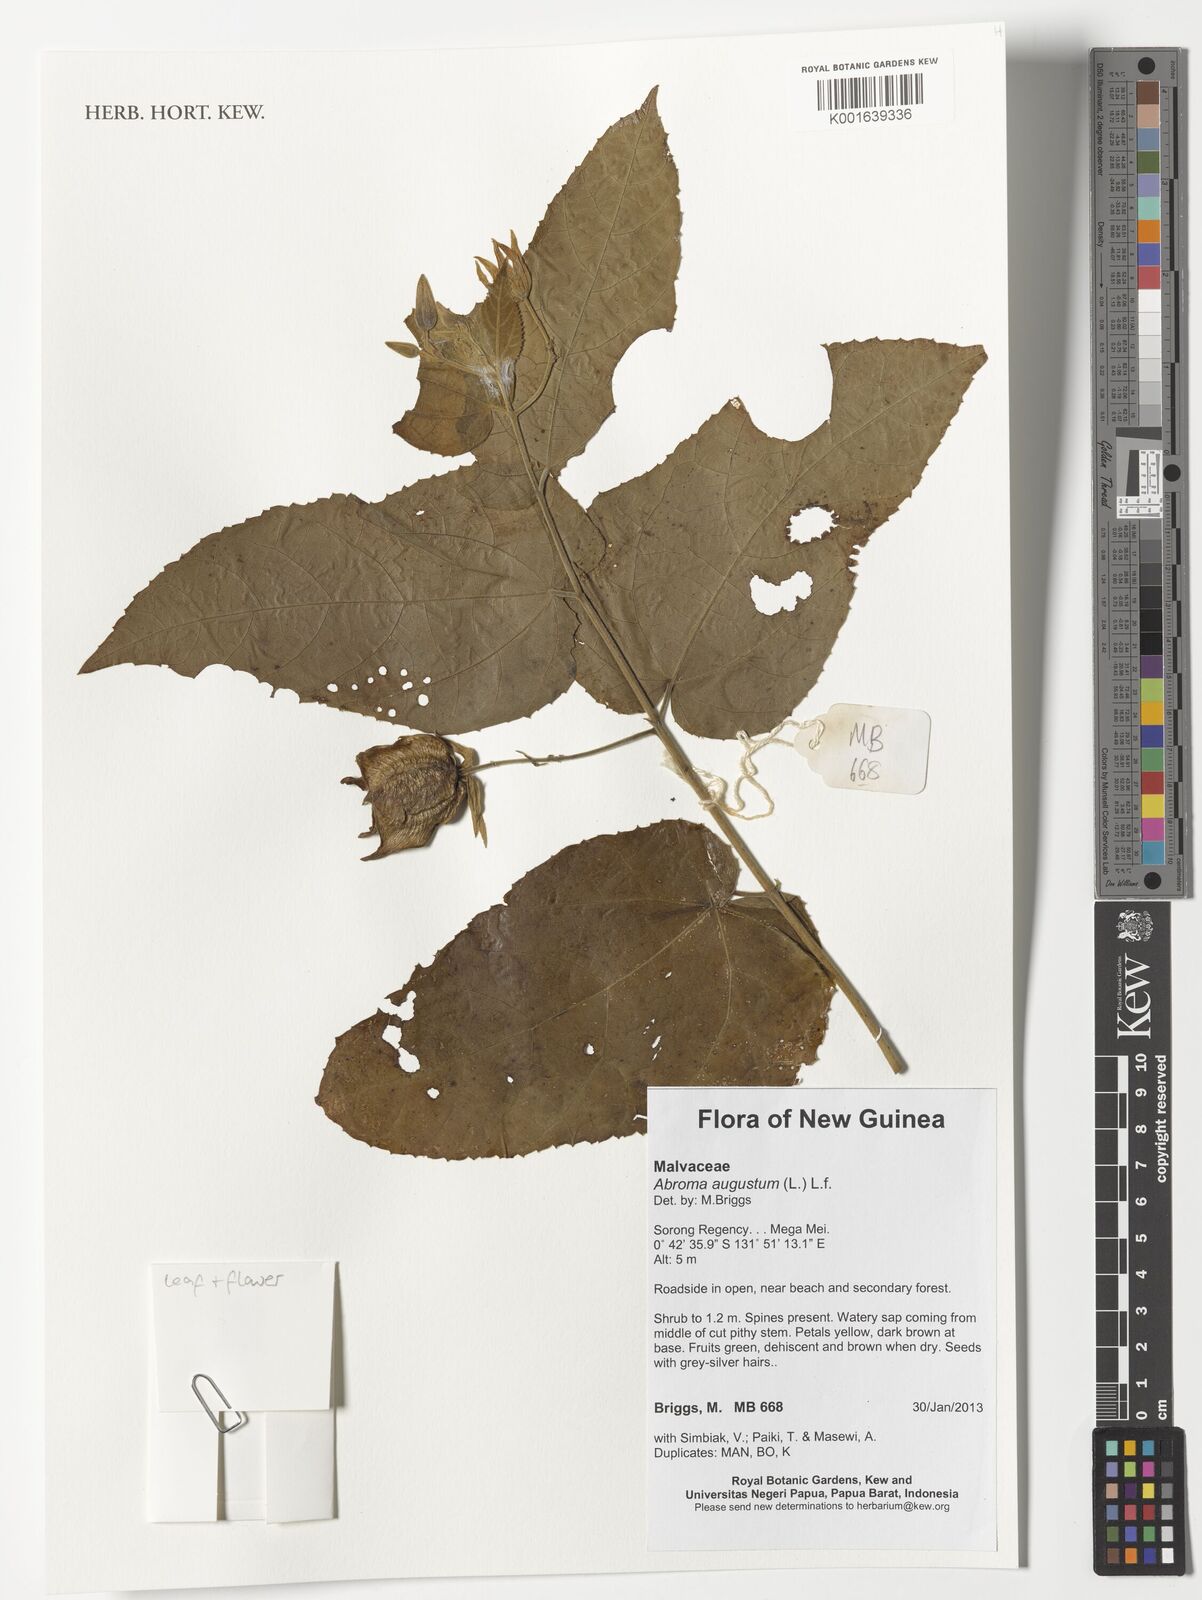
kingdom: Plantae
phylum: Tracheophyta
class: Magnoliopsida
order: Malvales
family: Malvaceae
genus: Abroma
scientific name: Abroma augustum
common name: Devil's-cotton
